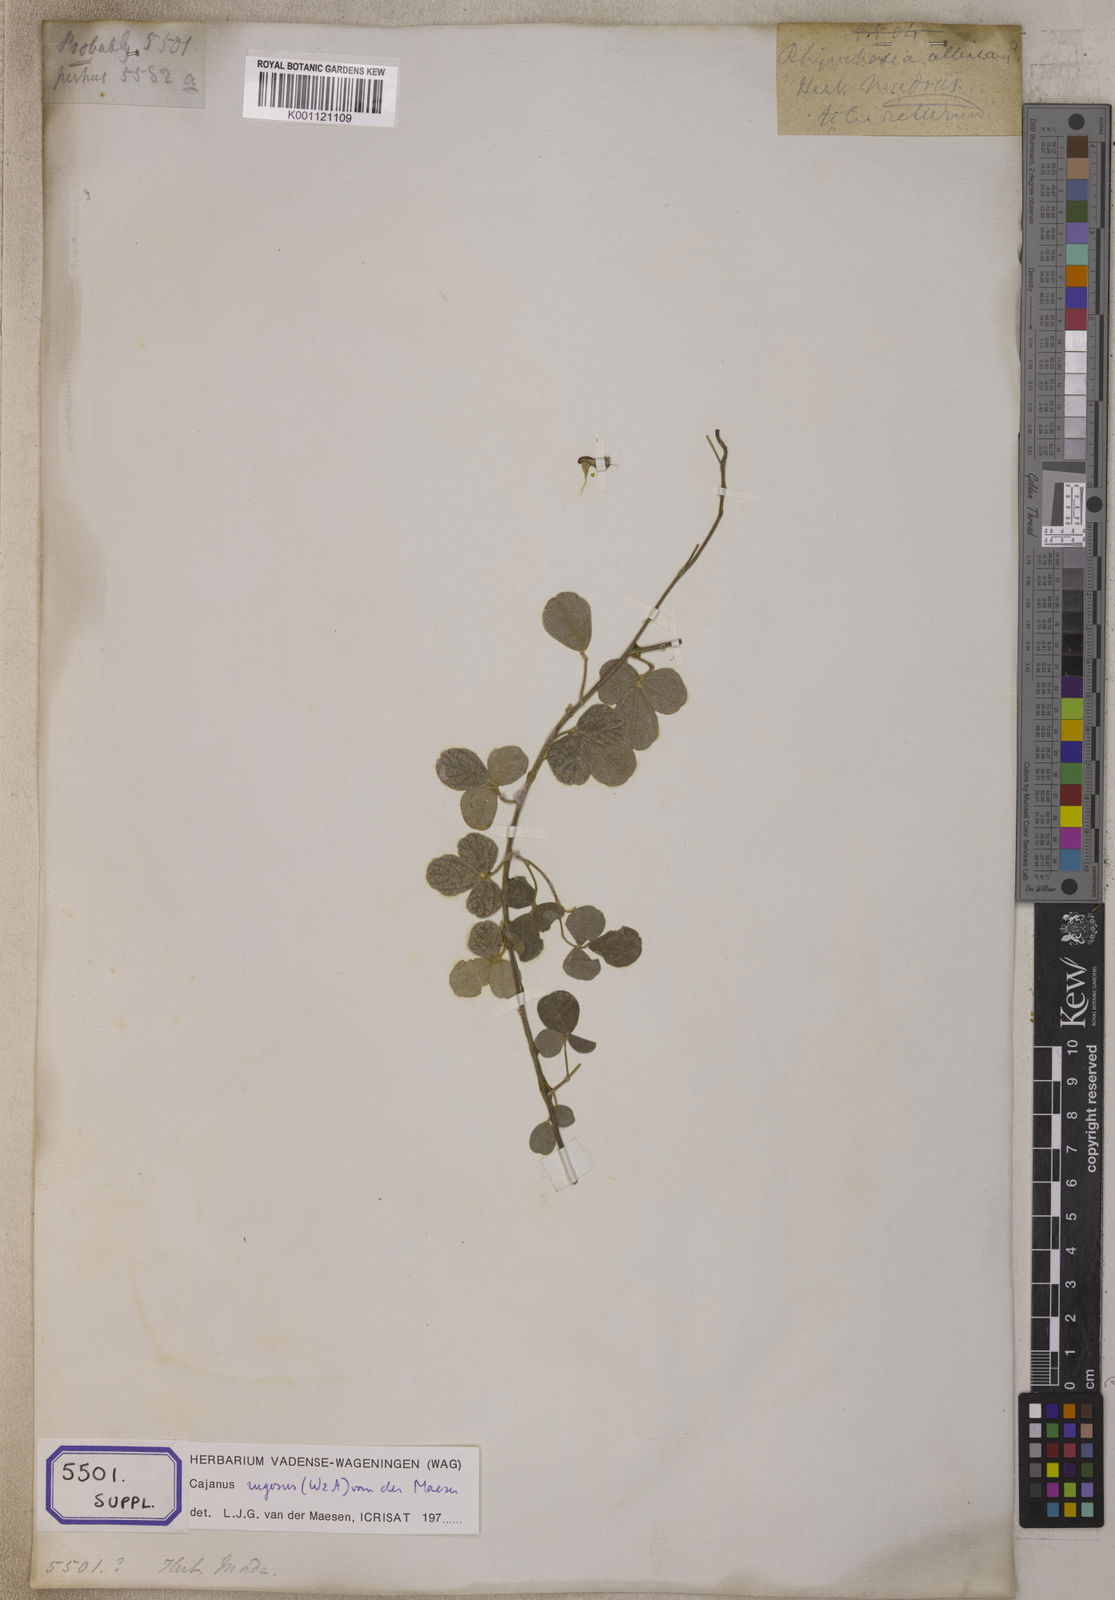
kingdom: Plantae
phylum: Tracheophyta
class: Magnoliopsida
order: Fabales
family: Fabaceae
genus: Cajanus
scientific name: Cajanus rugosus
